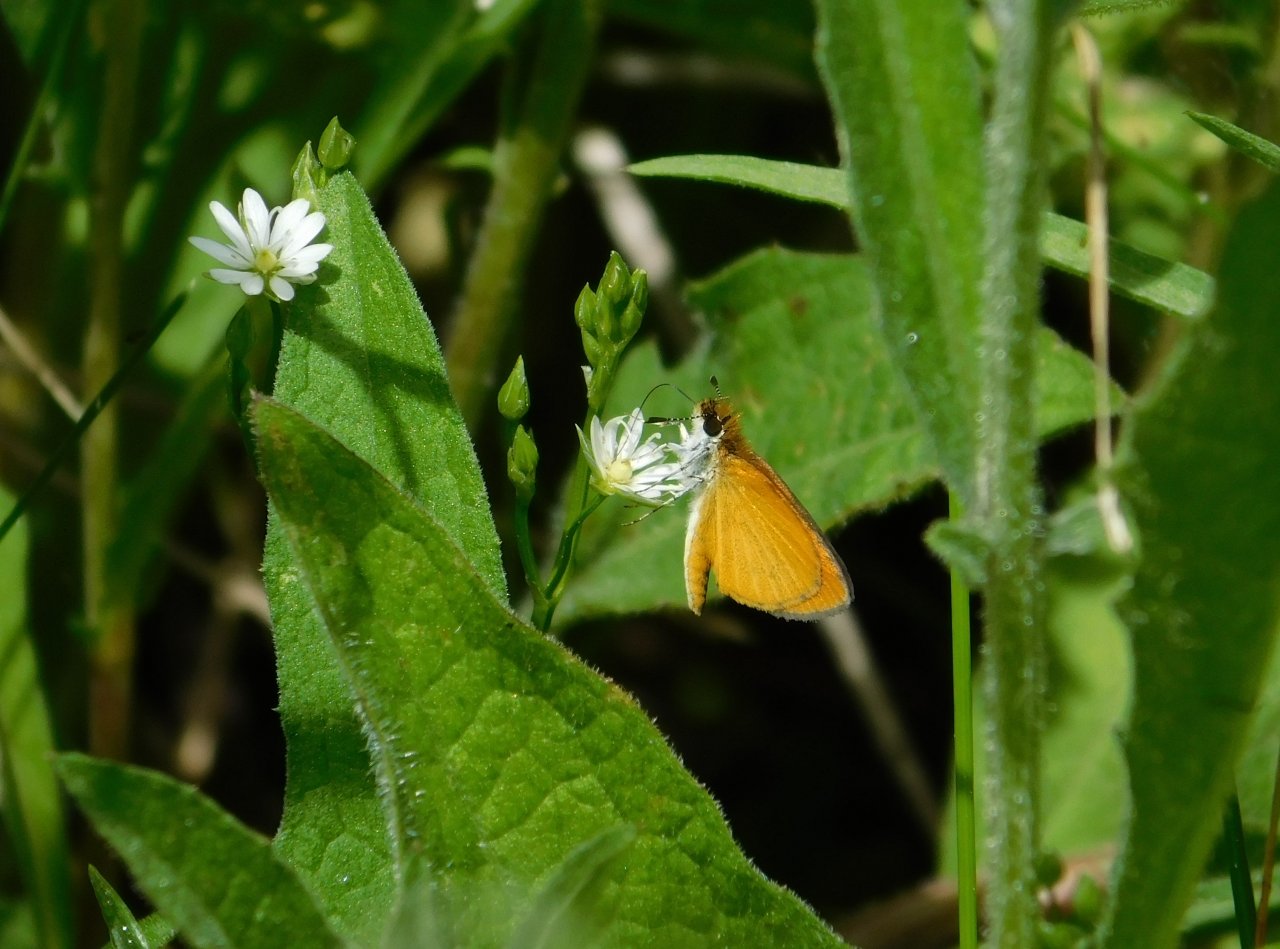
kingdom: Animalia
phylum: Arthropoda
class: Insecta
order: Lepidoptera
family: Hesperiidae
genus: Ancyloxypha
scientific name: Ancyloxypha numitor
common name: Least Skipper
